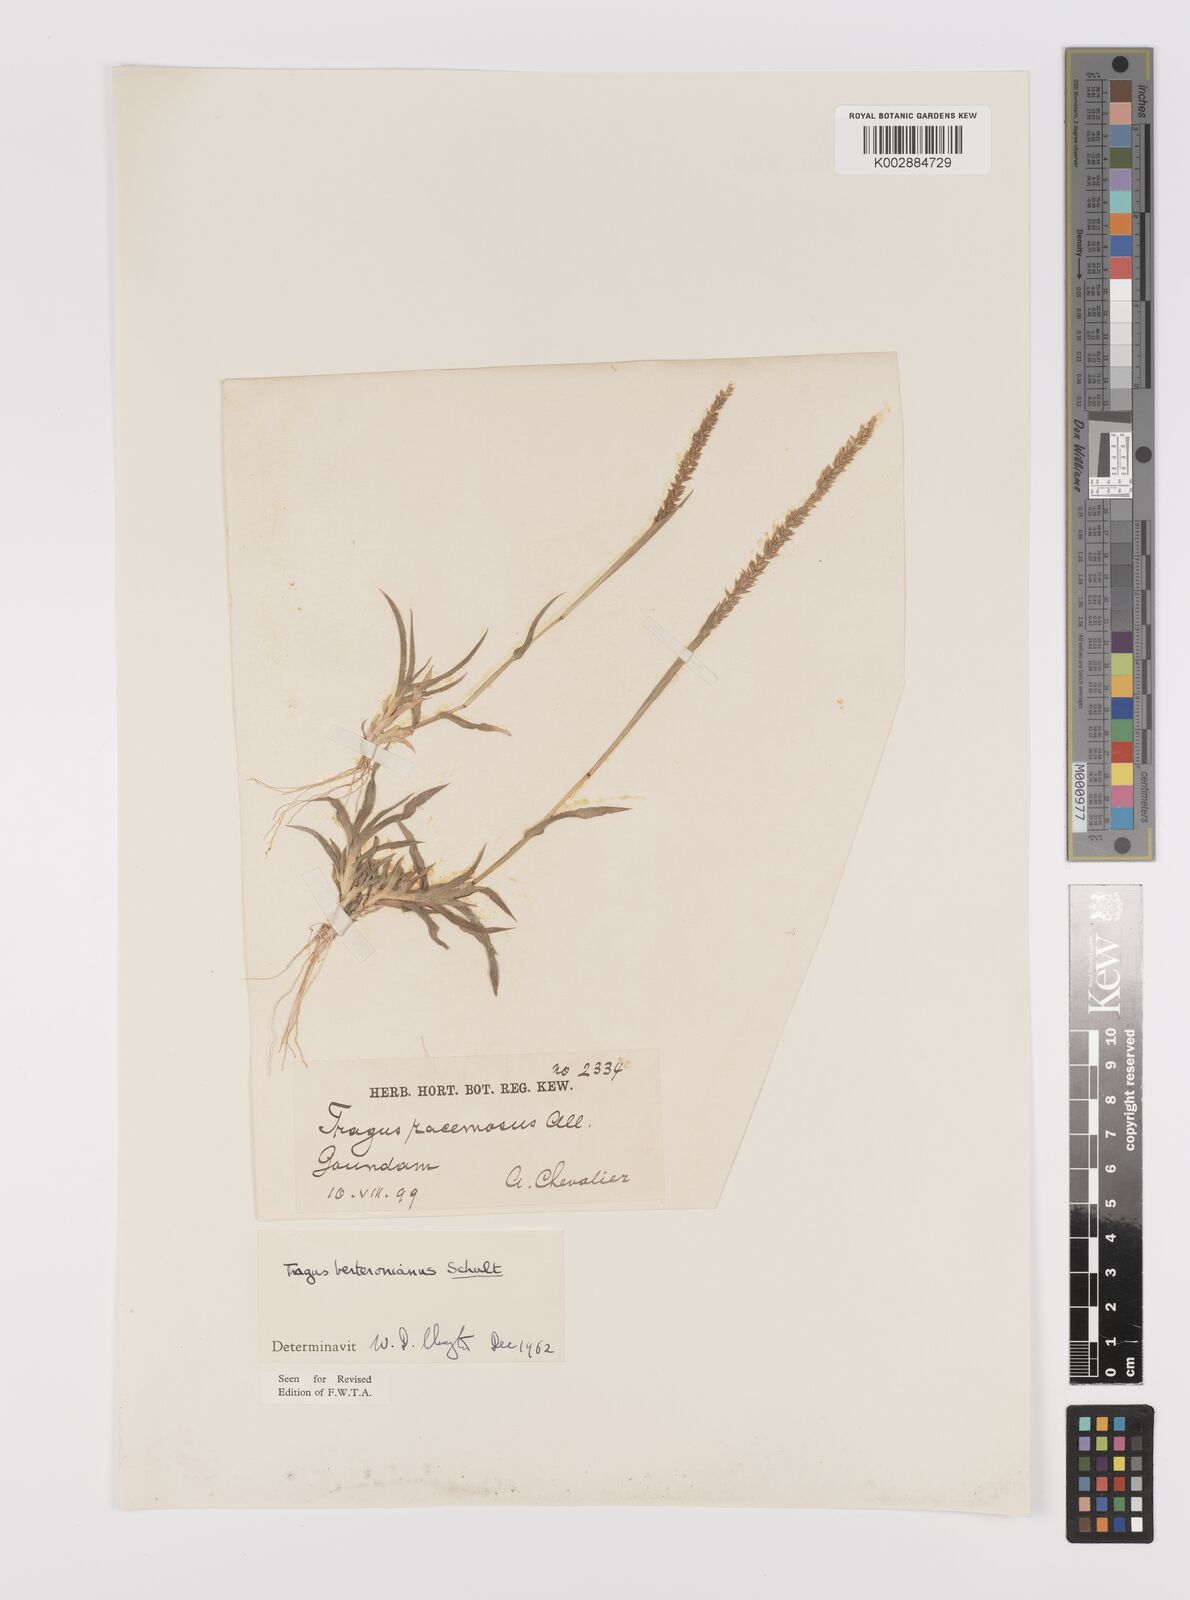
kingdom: Plantae
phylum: Tracheophyta
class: Liliopsida
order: Poales
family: Poaceae
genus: Tragus
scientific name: Tragus berteronianus
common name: African bur-grass
